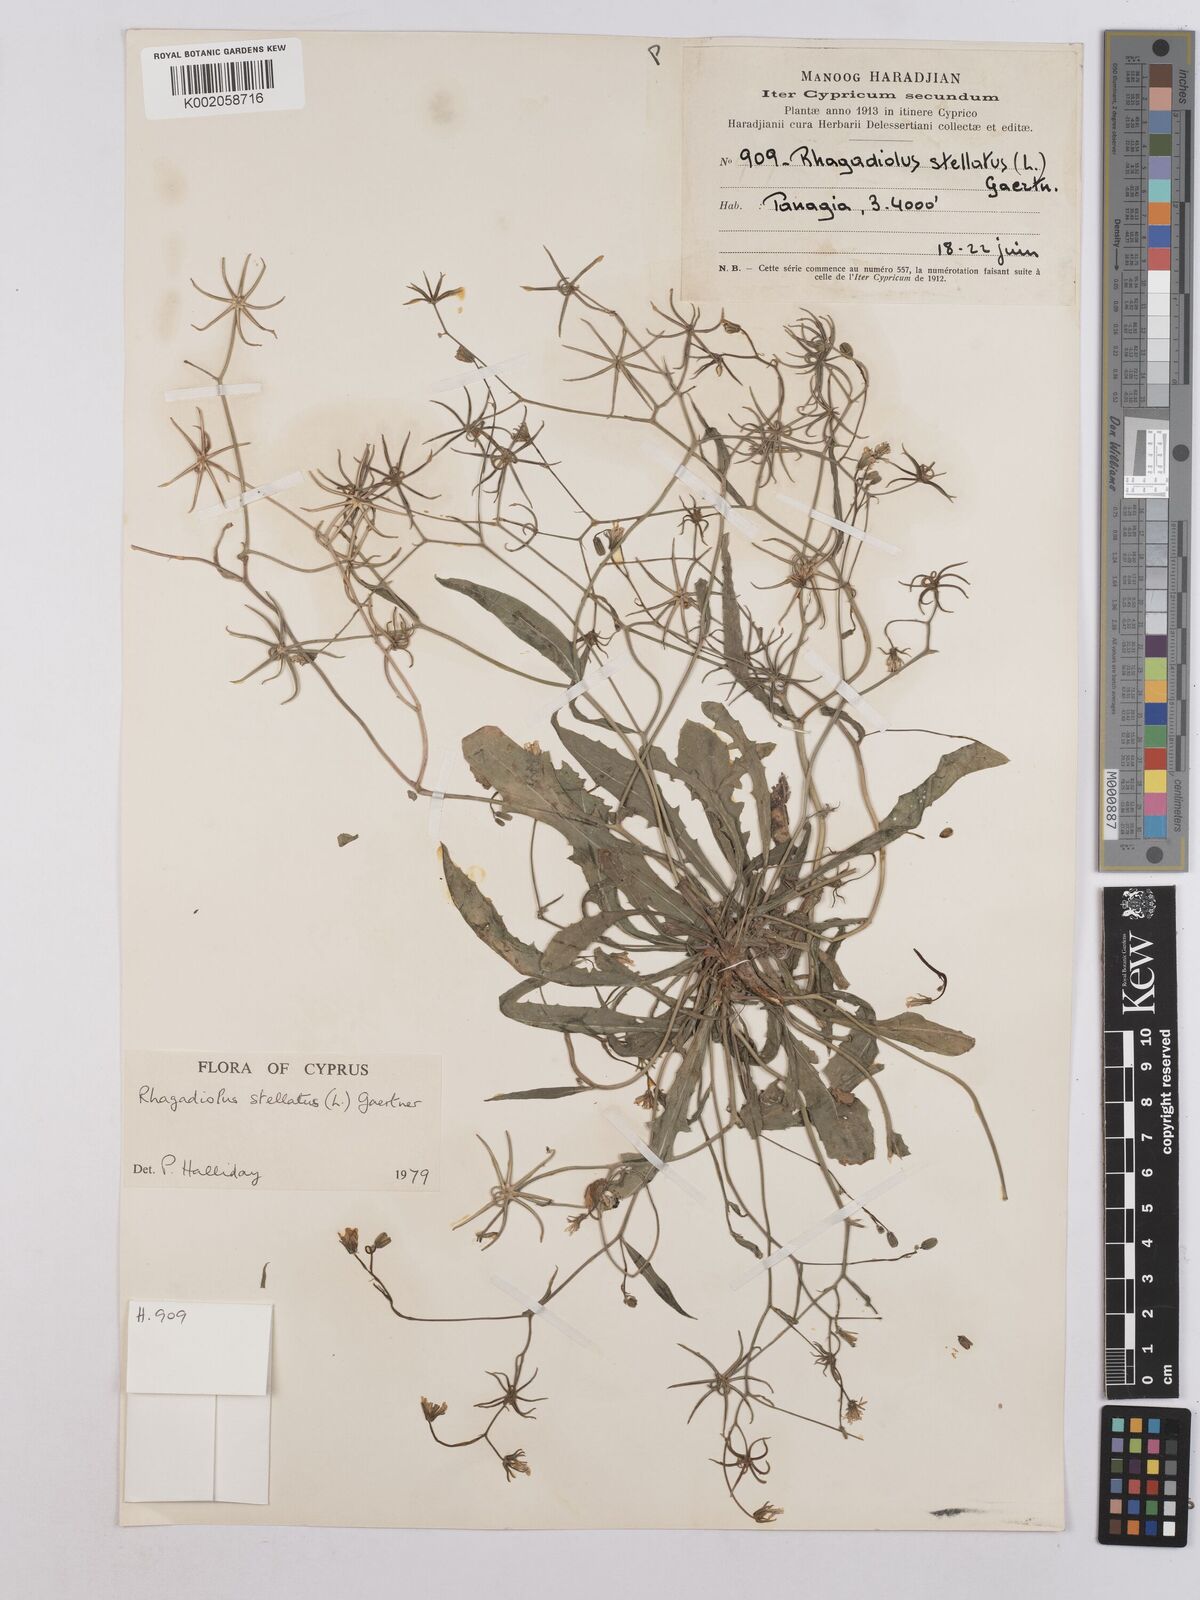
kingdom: Plantae
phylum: Tracheophyta
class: Magnoliopsida
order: Asterales
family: Asteraceae
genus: Rhagadiolus
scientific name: Rhagadiolus stellatus
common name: Star hawkbit
